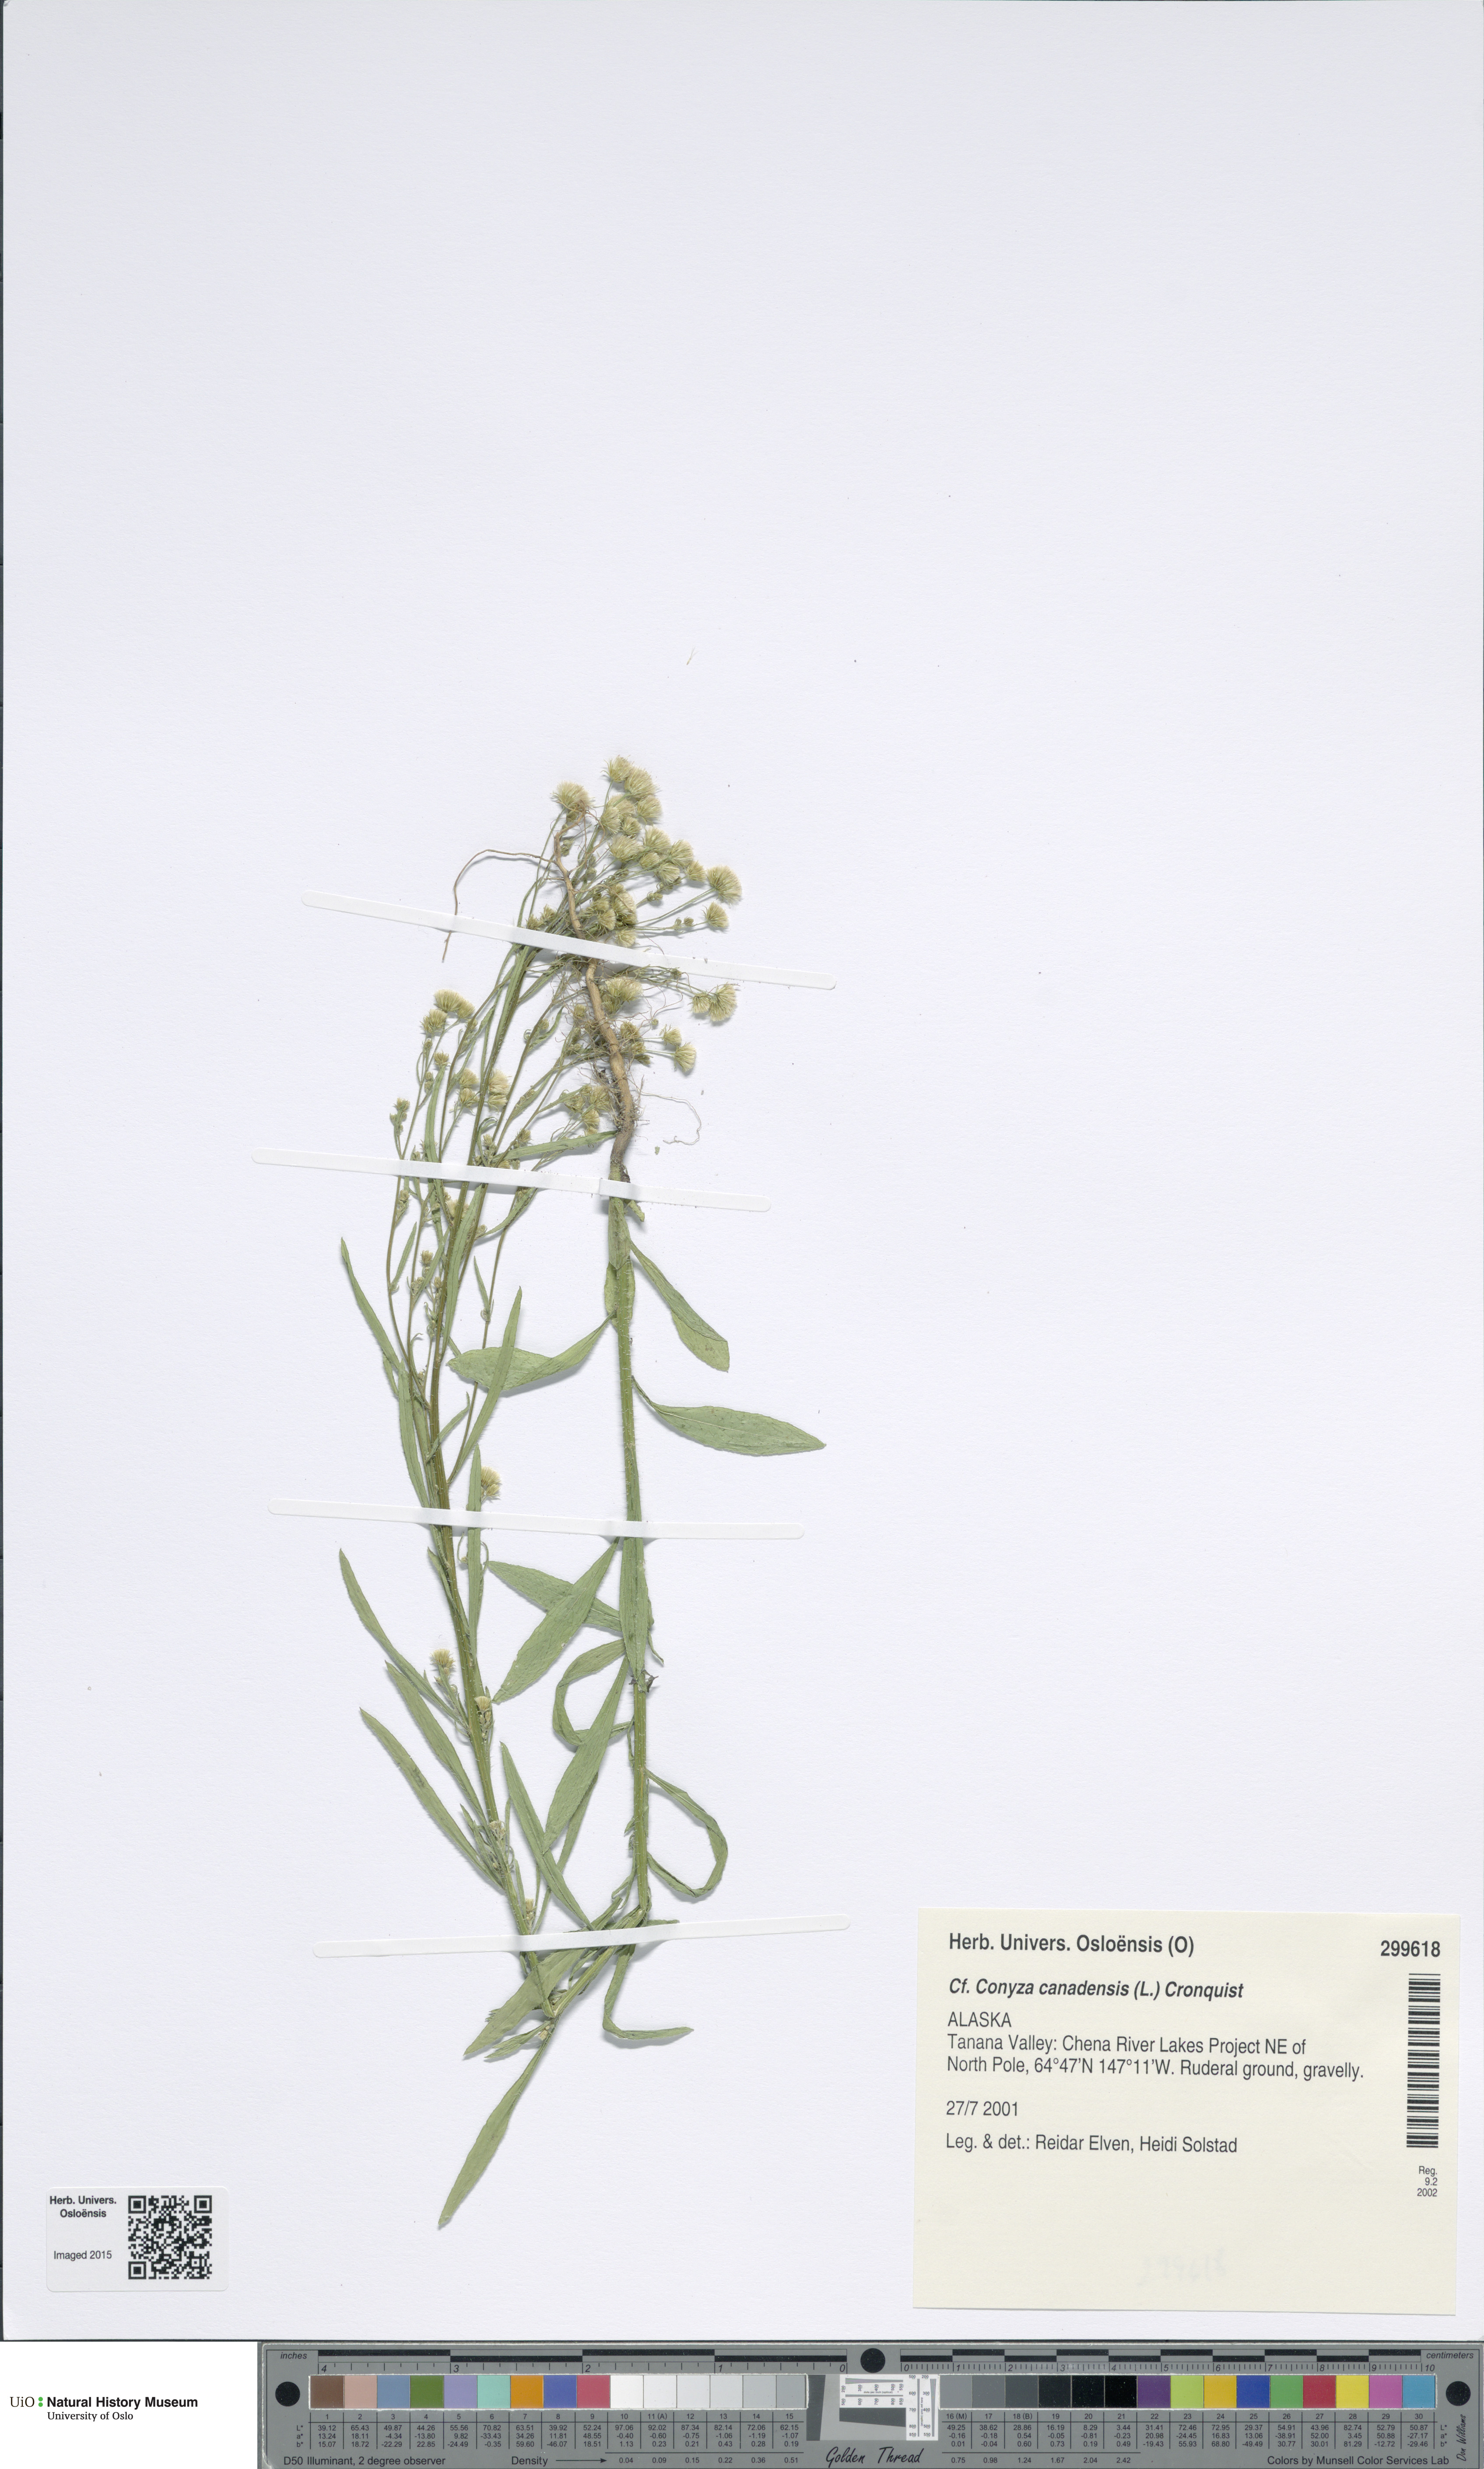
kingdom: Plantae
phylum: Tracheophyta
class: Magnoliopsida
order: Asterales
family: Asteraceae
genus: Erigeron
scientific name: Erigeron canadensis
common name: Canadian fleabane
